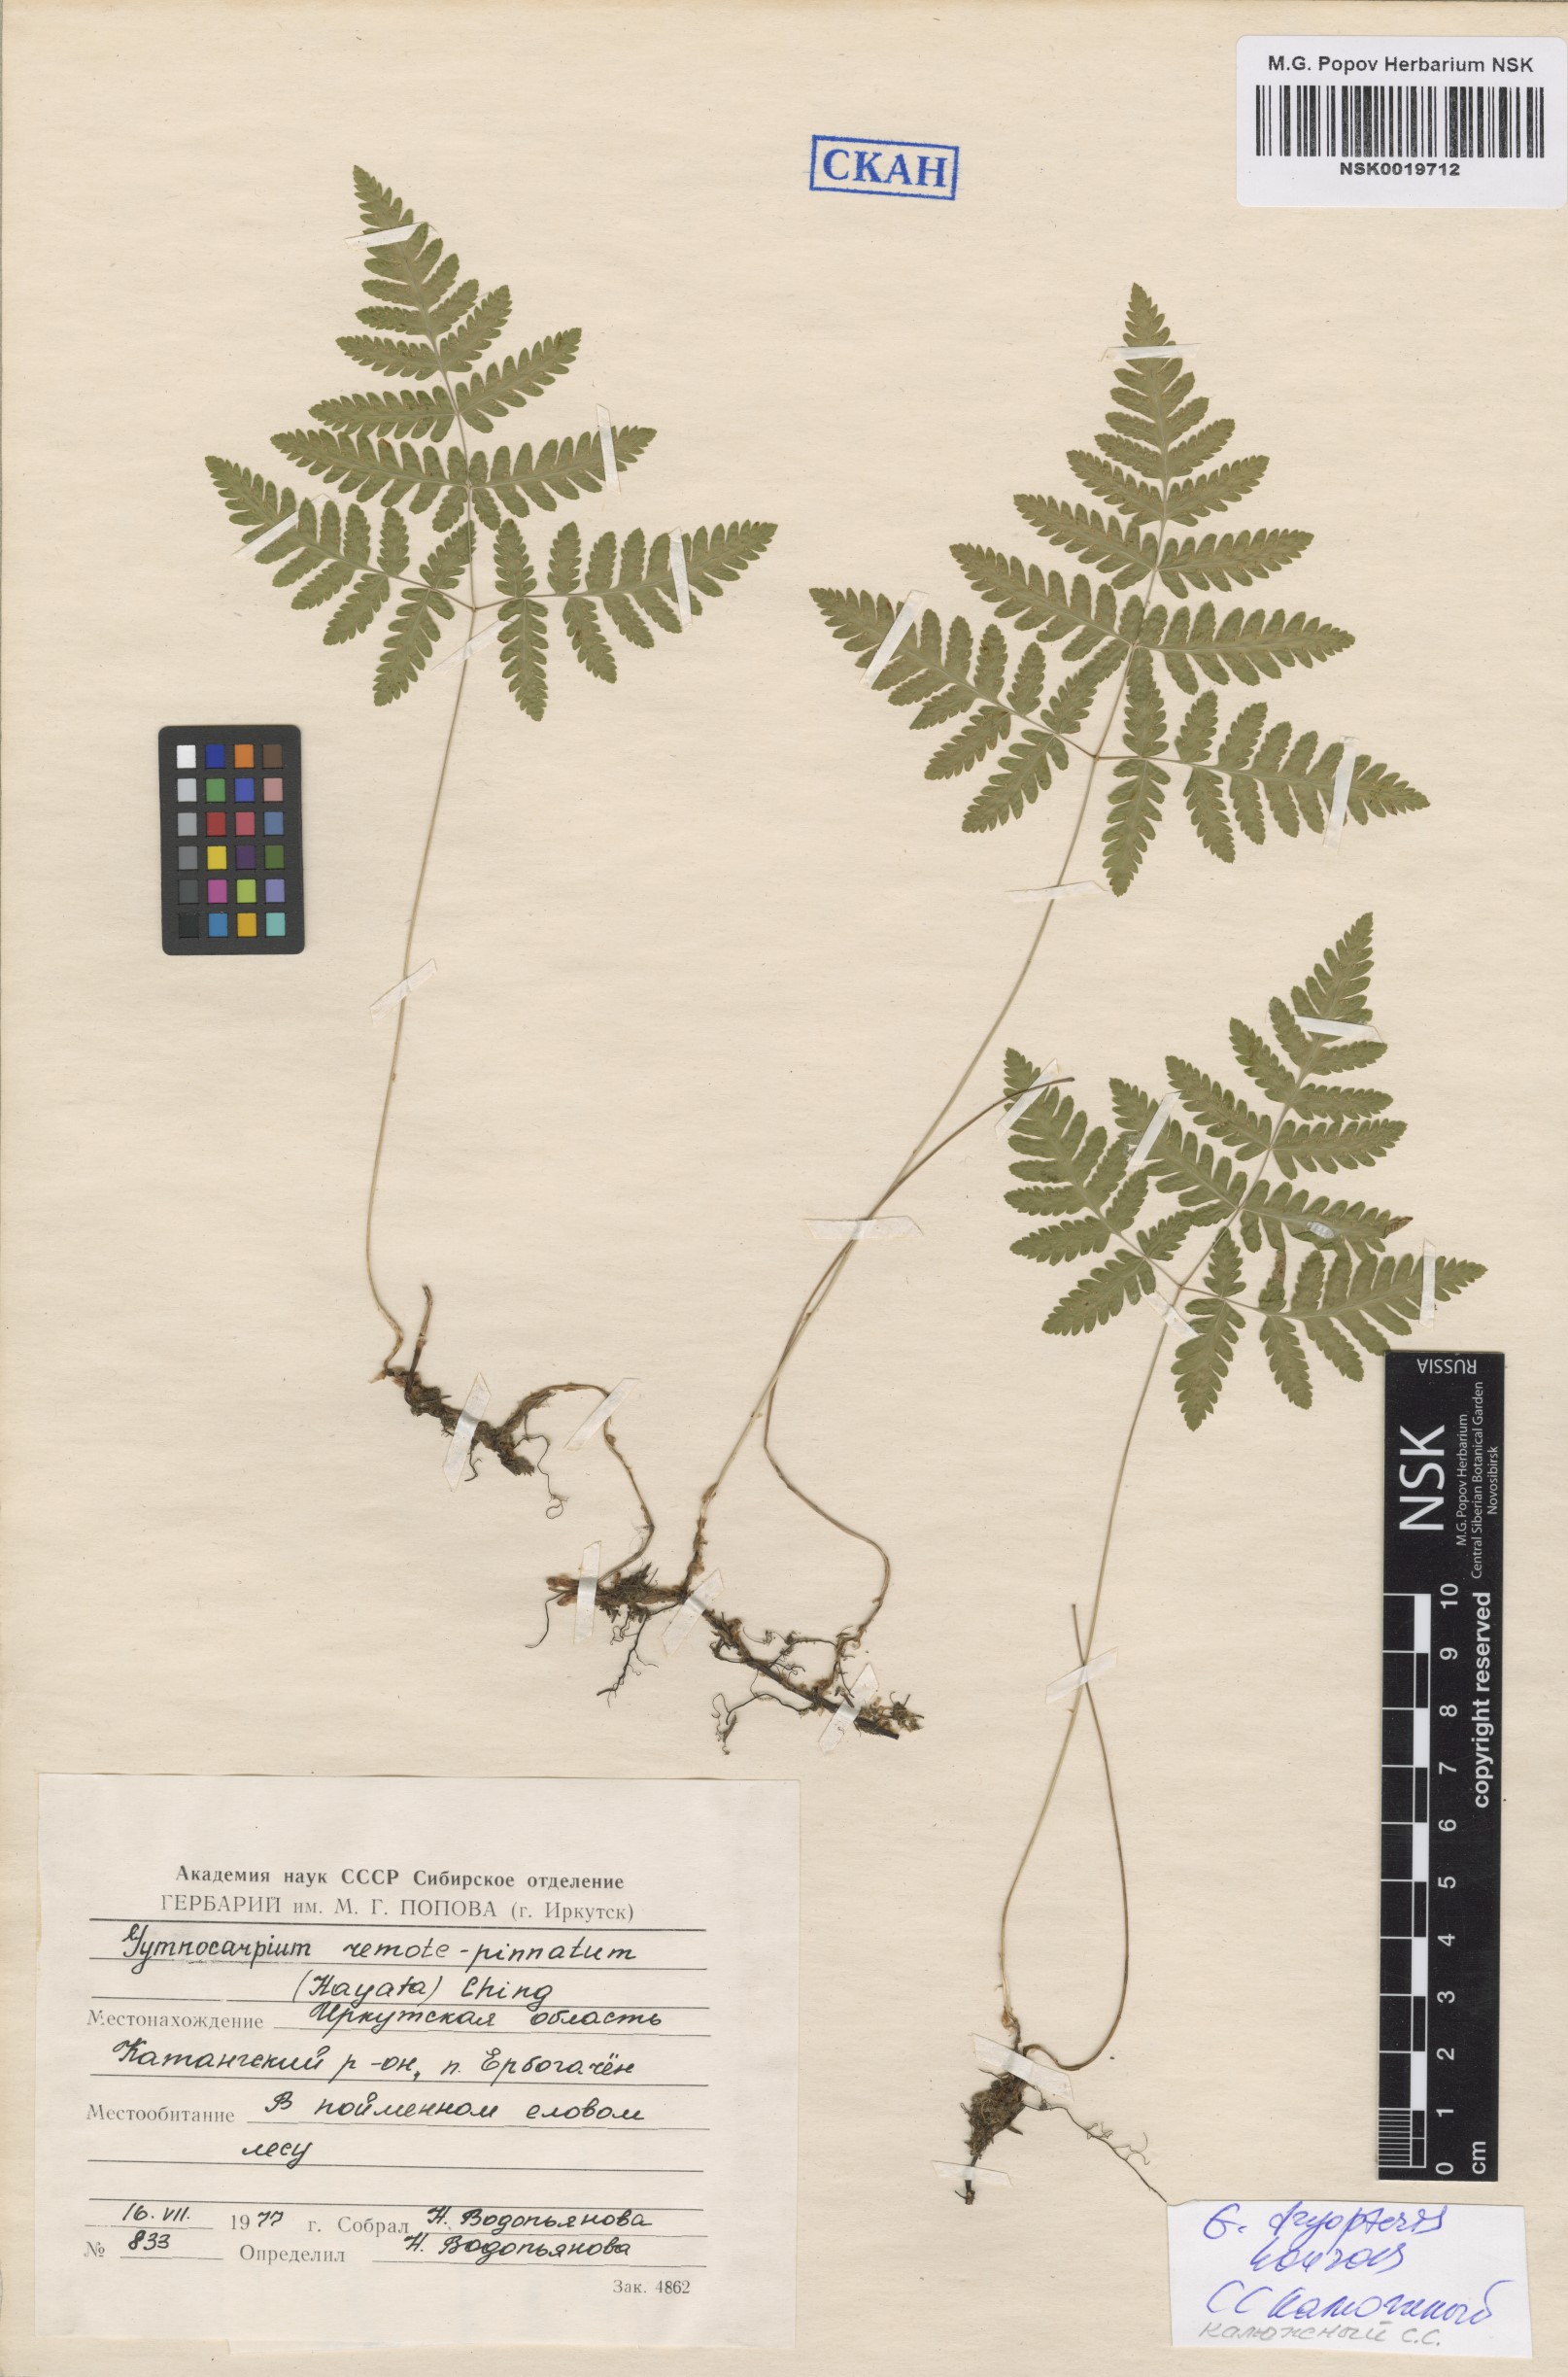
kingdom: Plantae
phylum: Tracheophyta
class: Polypodiopsida
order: Polypodiales
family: Cystopteridaceae
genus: Gymnocarpium
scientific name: Gymnocarpium dryopteris
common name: Oak fern
